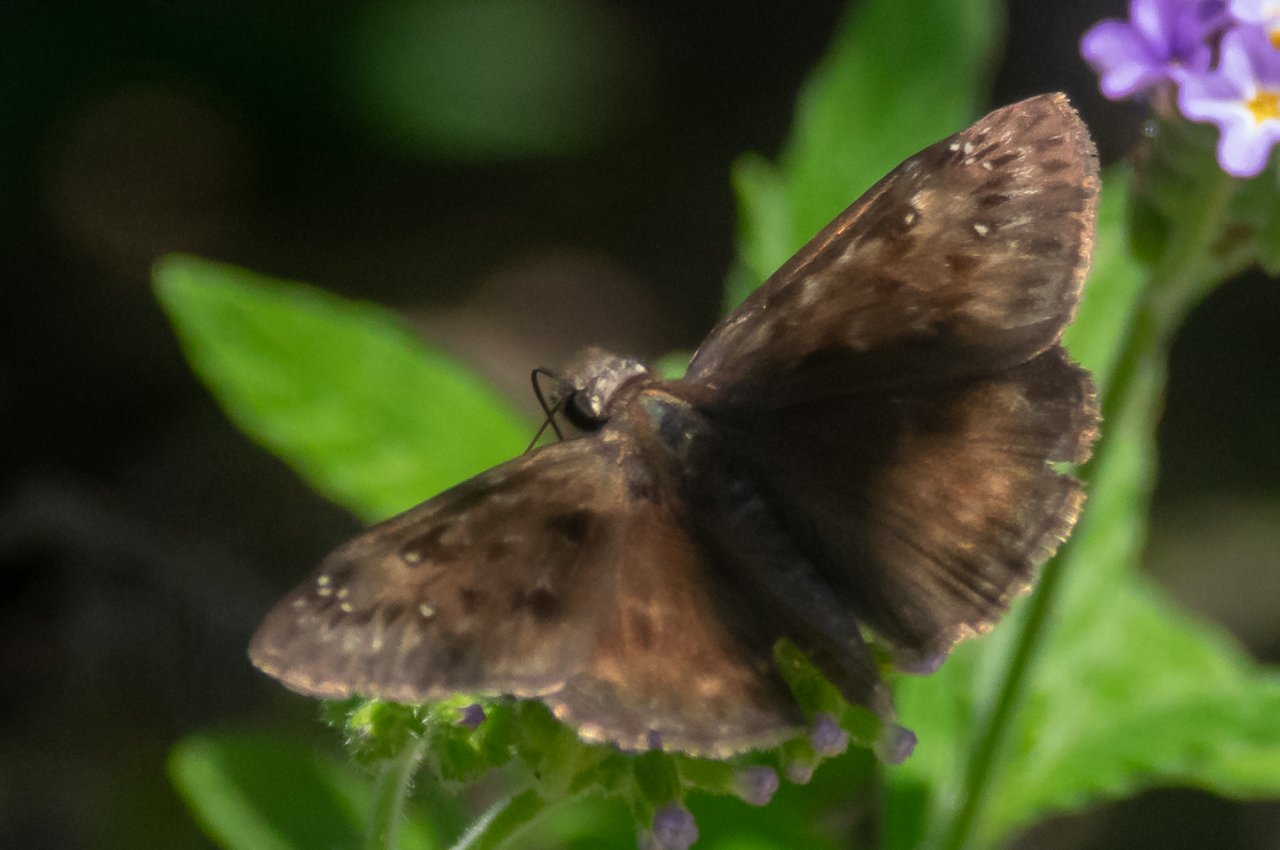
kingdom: Animalia
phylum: Arthropoda
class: Insecta
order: Lepidoptera
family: Hesperiidae
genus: Gesta
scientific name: Gesta
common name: Horace's Duskywing
